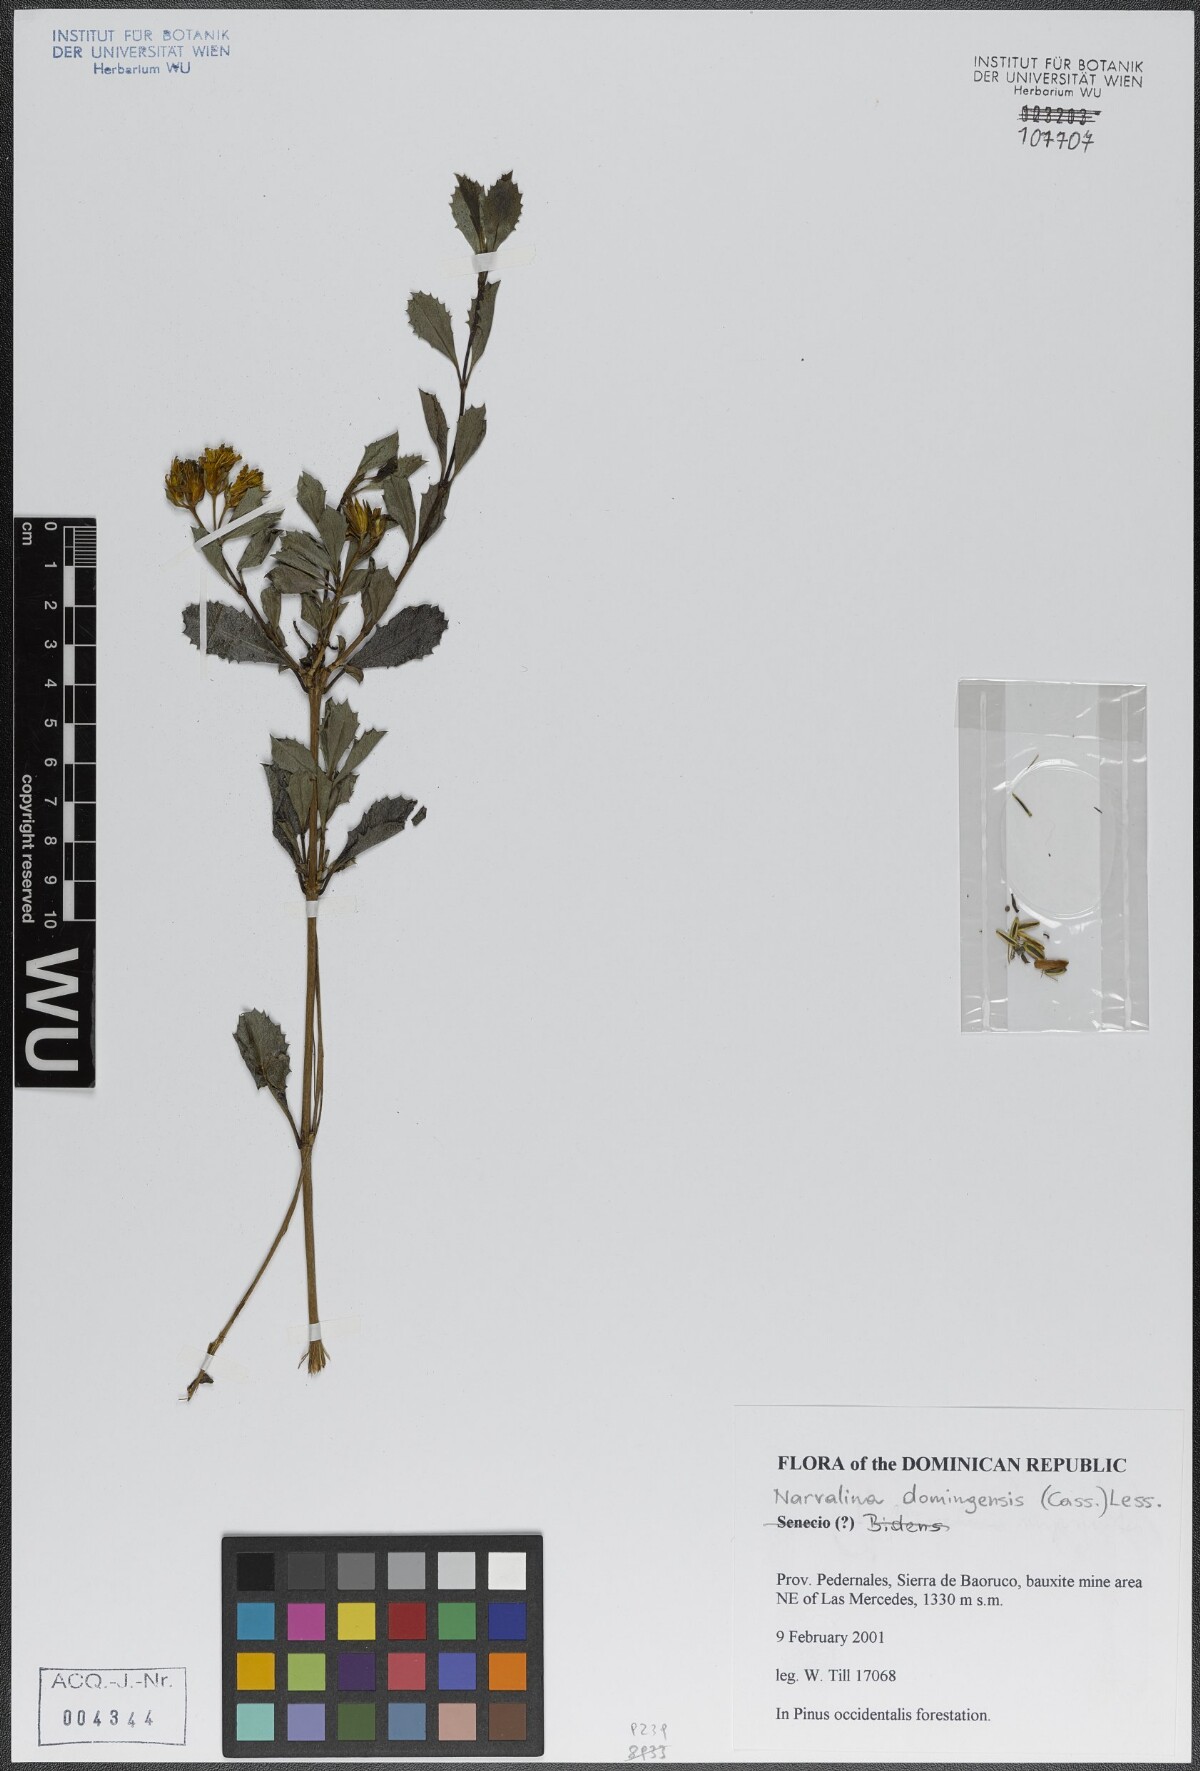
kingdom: Plantae
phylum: Tracheophyta
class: Magnoliopsida
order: Asterales
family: Asteraceae
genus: Narvalina
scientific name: Narvalina domingensis
